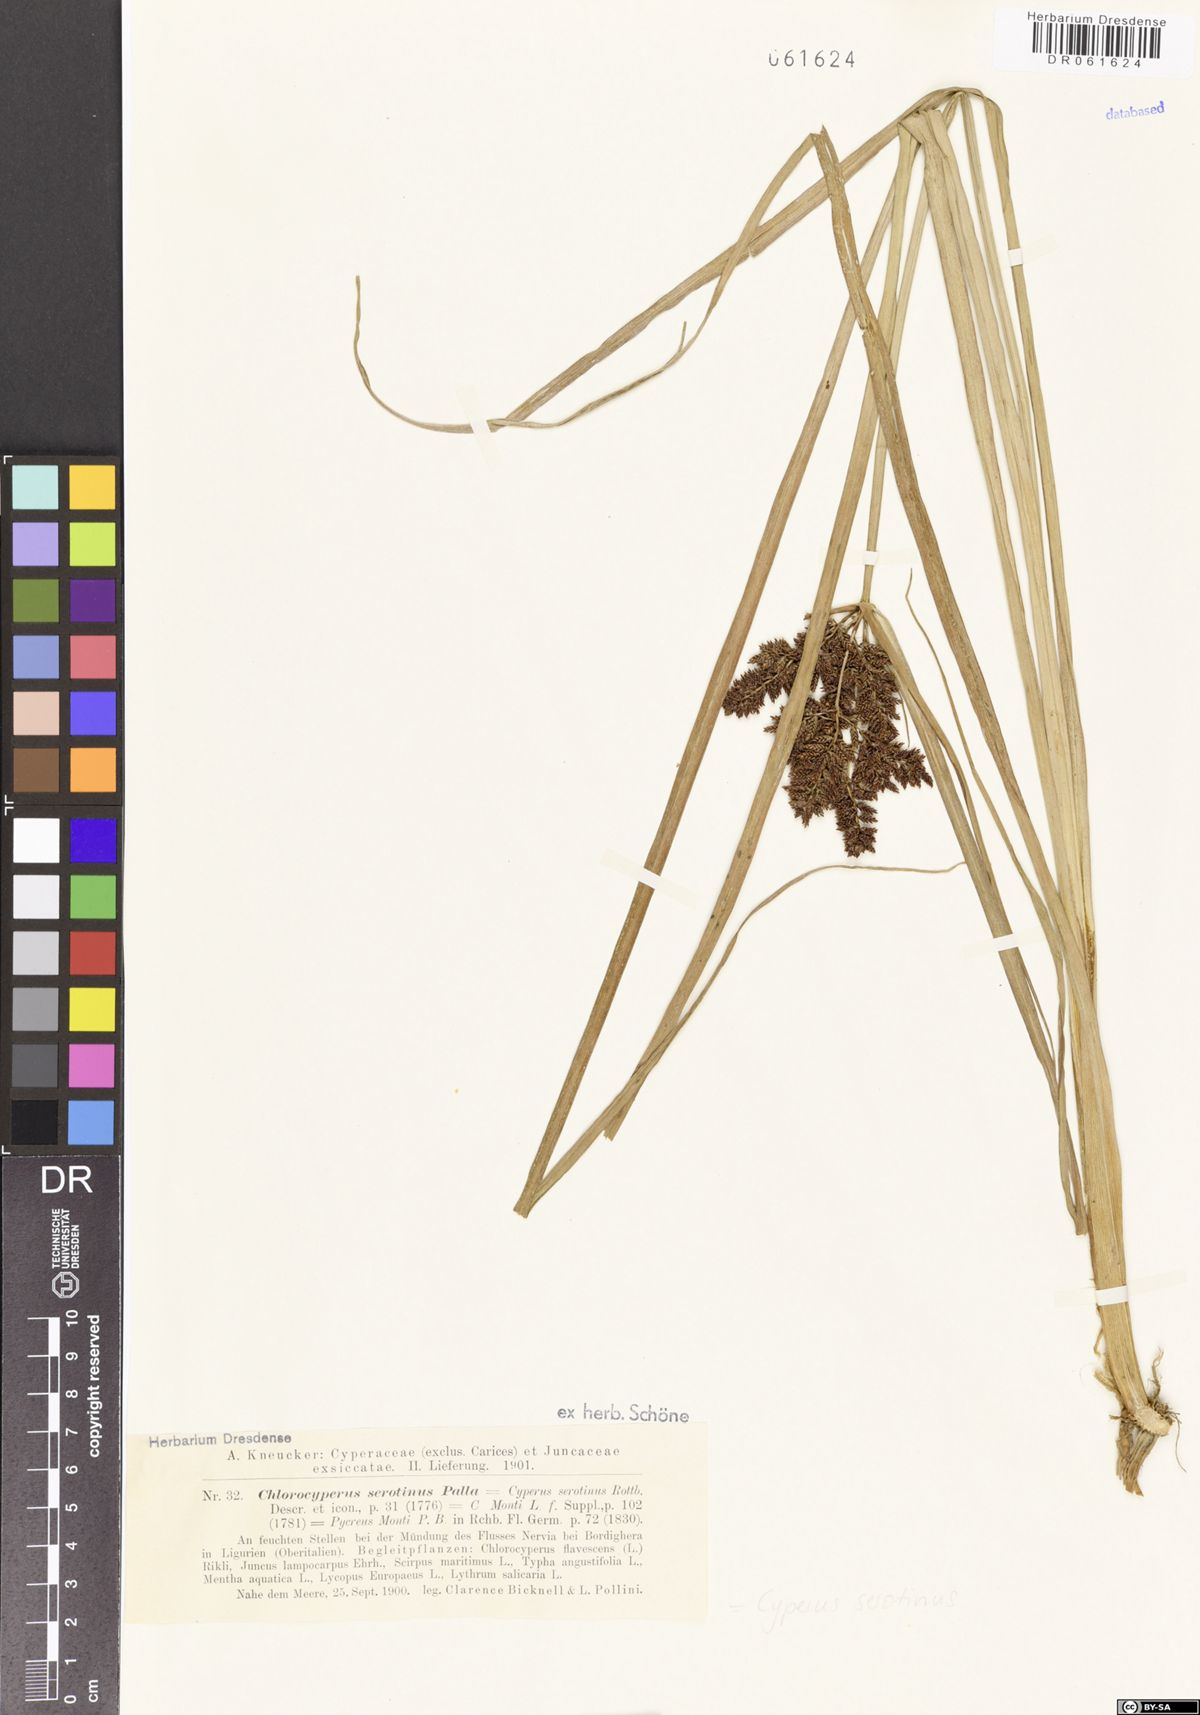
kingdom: Plantae
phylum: Tracheophyta
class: Liliopsida
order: Poales
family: Cyperaceae
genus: Cyperus
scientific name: Cyperus serotinus
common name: Tidalmarsh flatsedge
